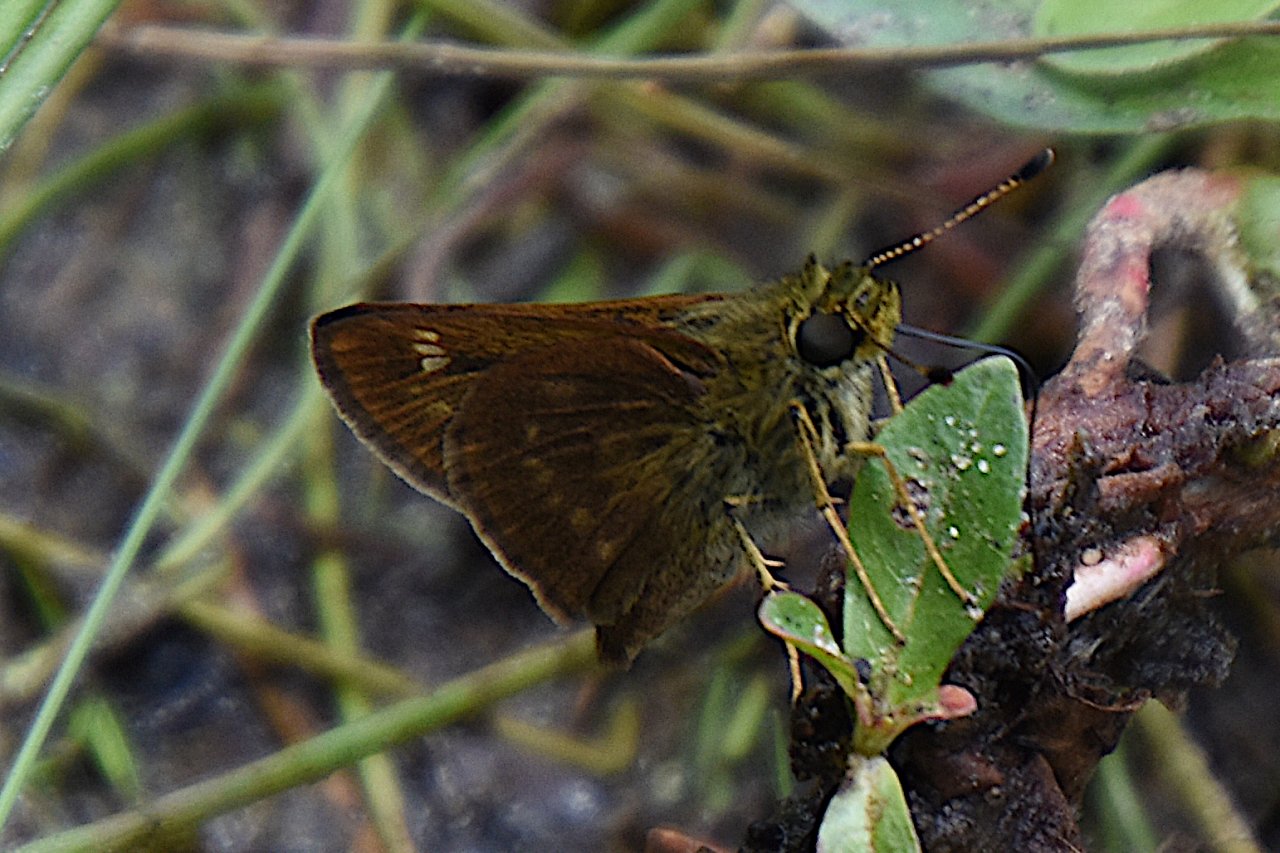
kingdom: Animalia
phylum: Arthropoda
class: Insecta
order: Lepidoptera
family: Hesperiidae
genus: Vernia
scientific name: Vernia verna
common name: Little Glassywing
